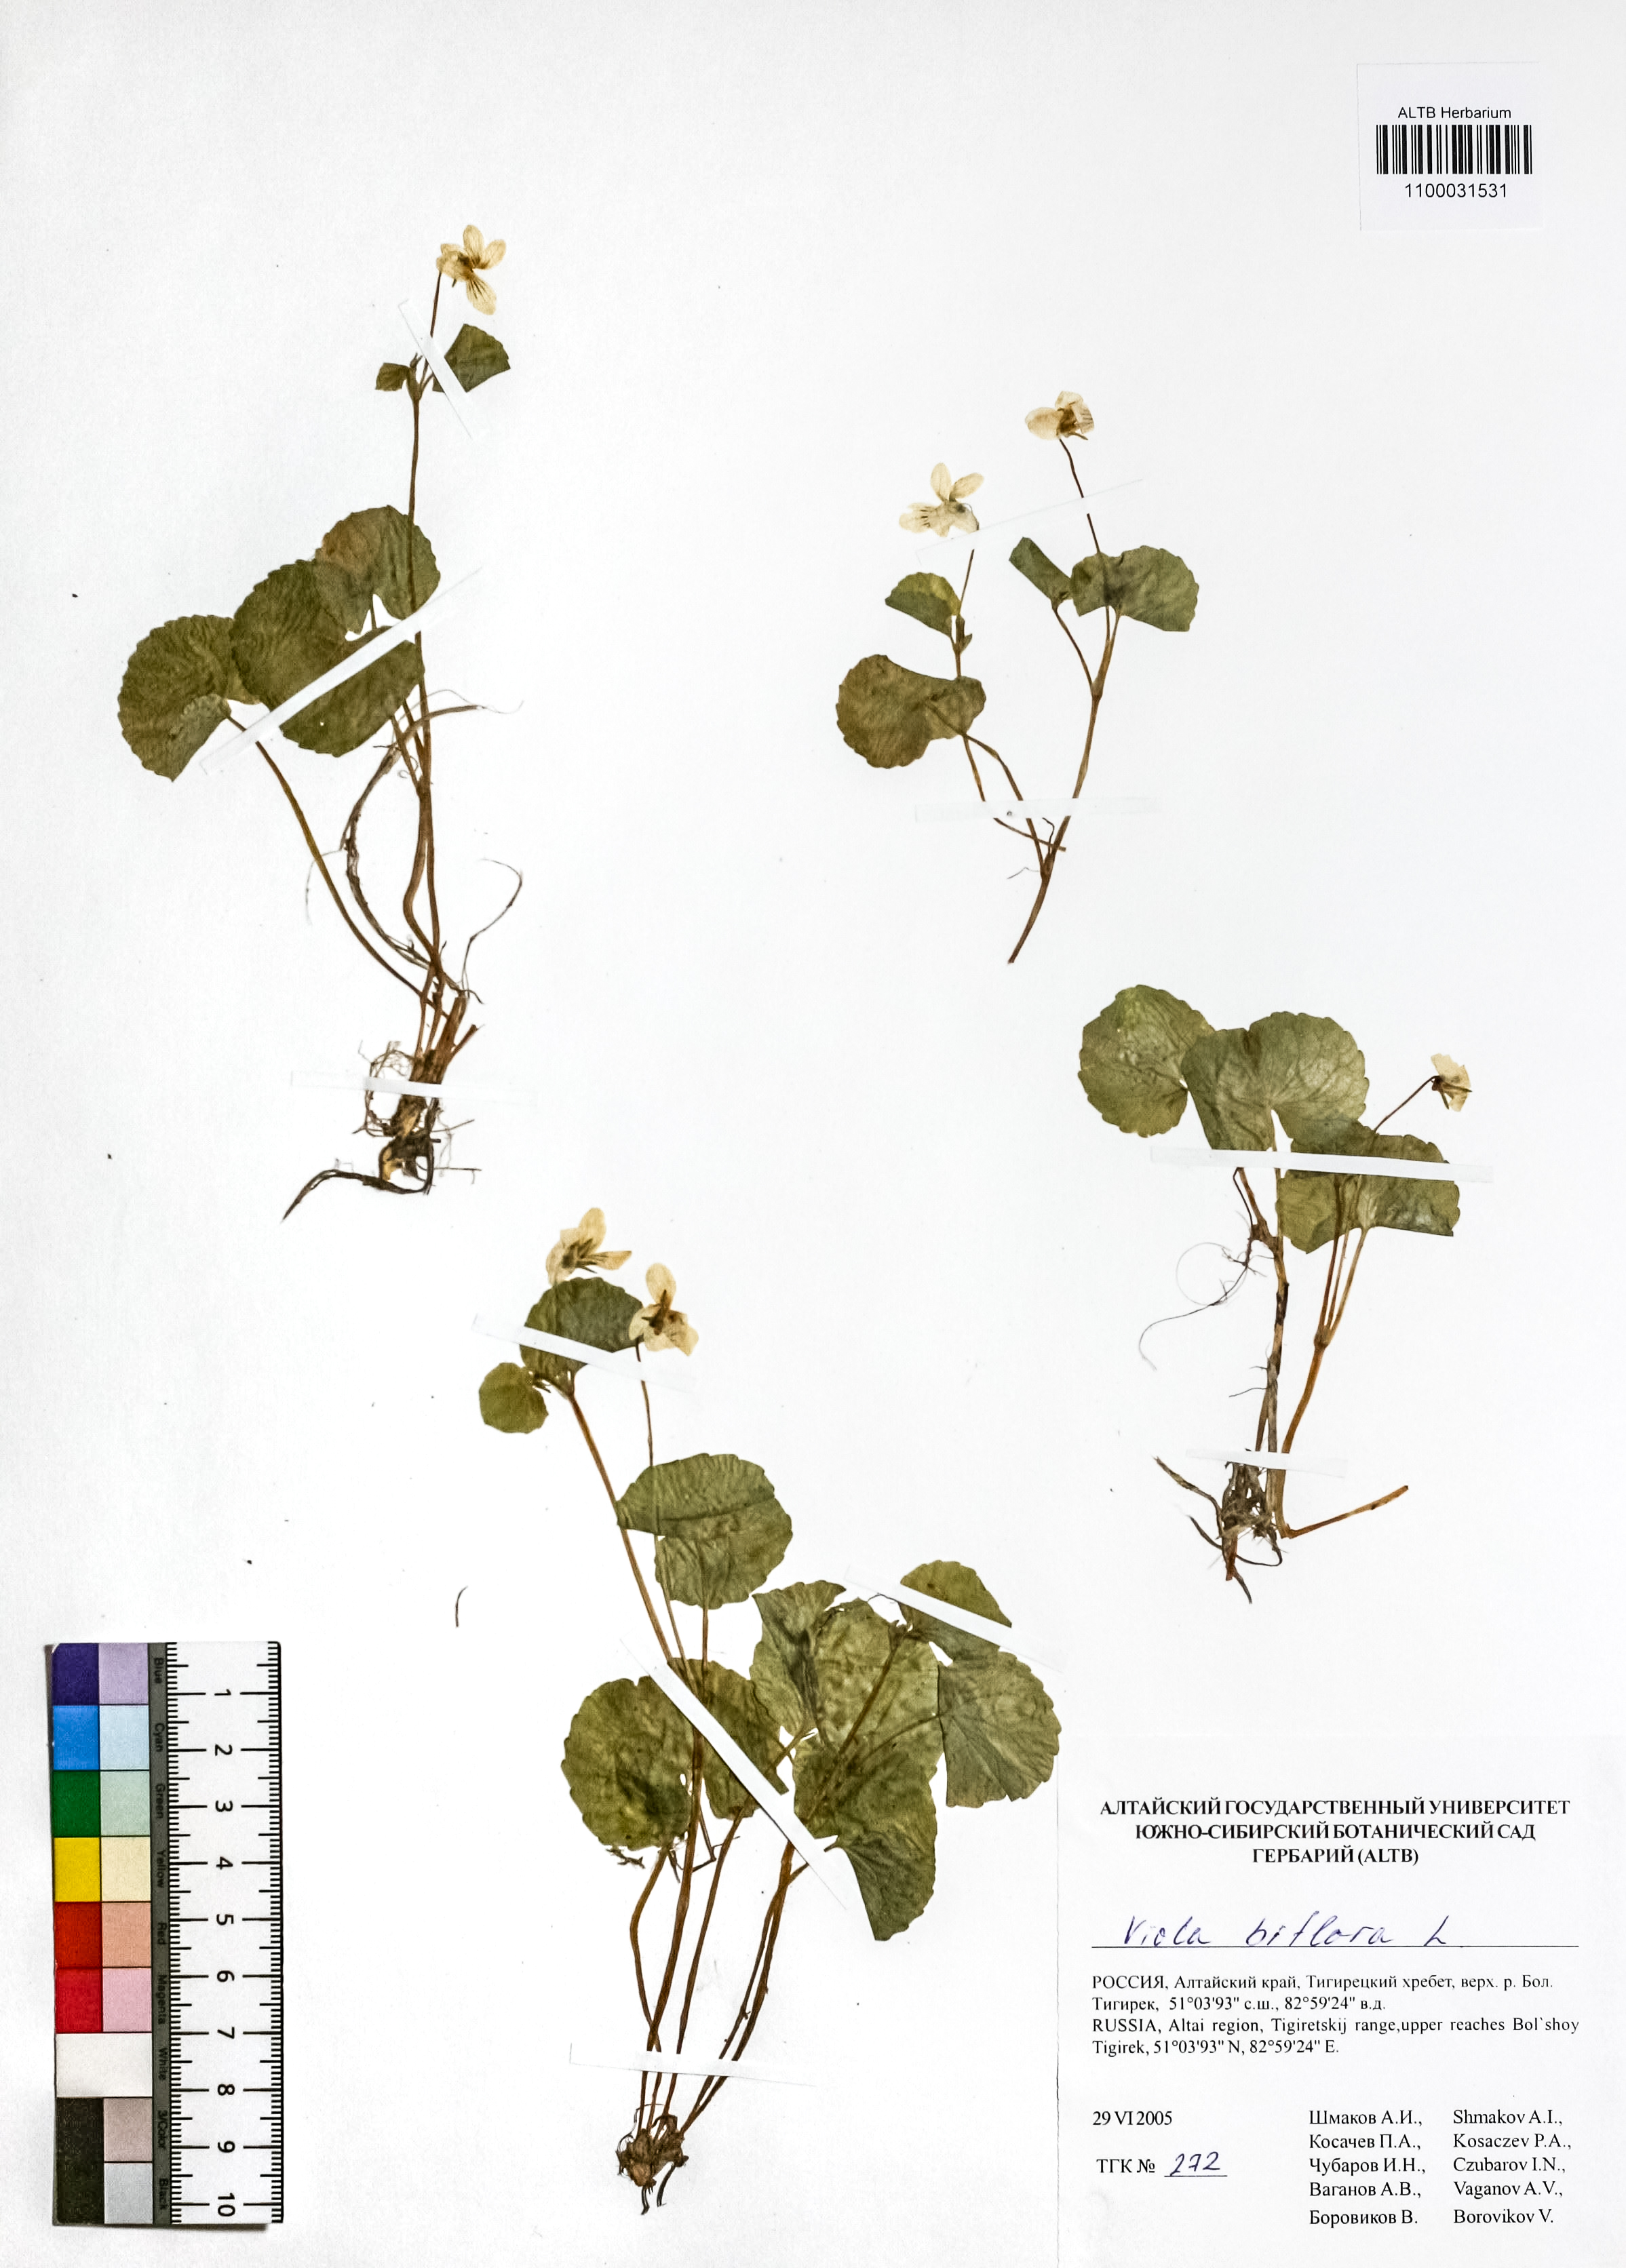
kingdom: Plantae
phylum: Tracheophyta
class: Magnoliopsida
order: Malpighiales
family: Violaceae
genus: Viola
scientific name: Viola biflora
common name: Alpine yellow violet
